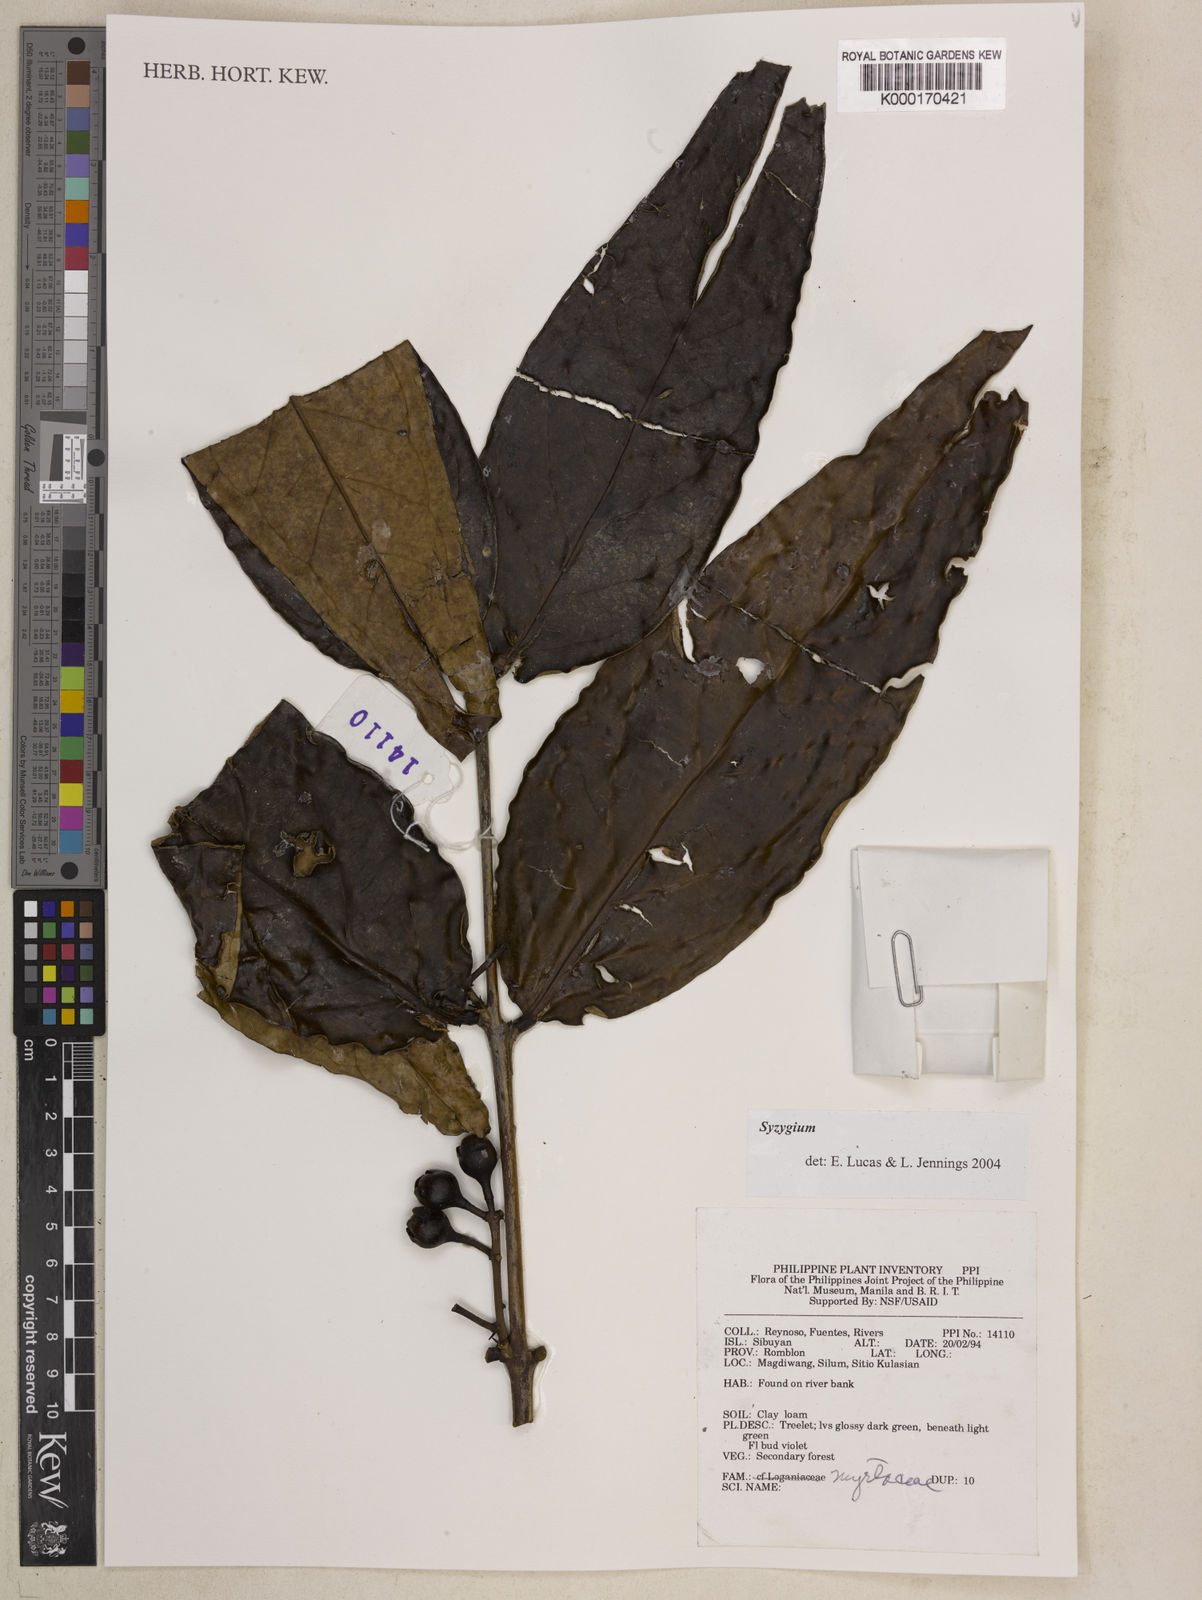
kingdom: Plantae
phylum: Tracheophyta
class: Magnoliopsida
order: Myrtales
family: Myrtaceae
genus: Syzygium
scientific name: Syzygium
